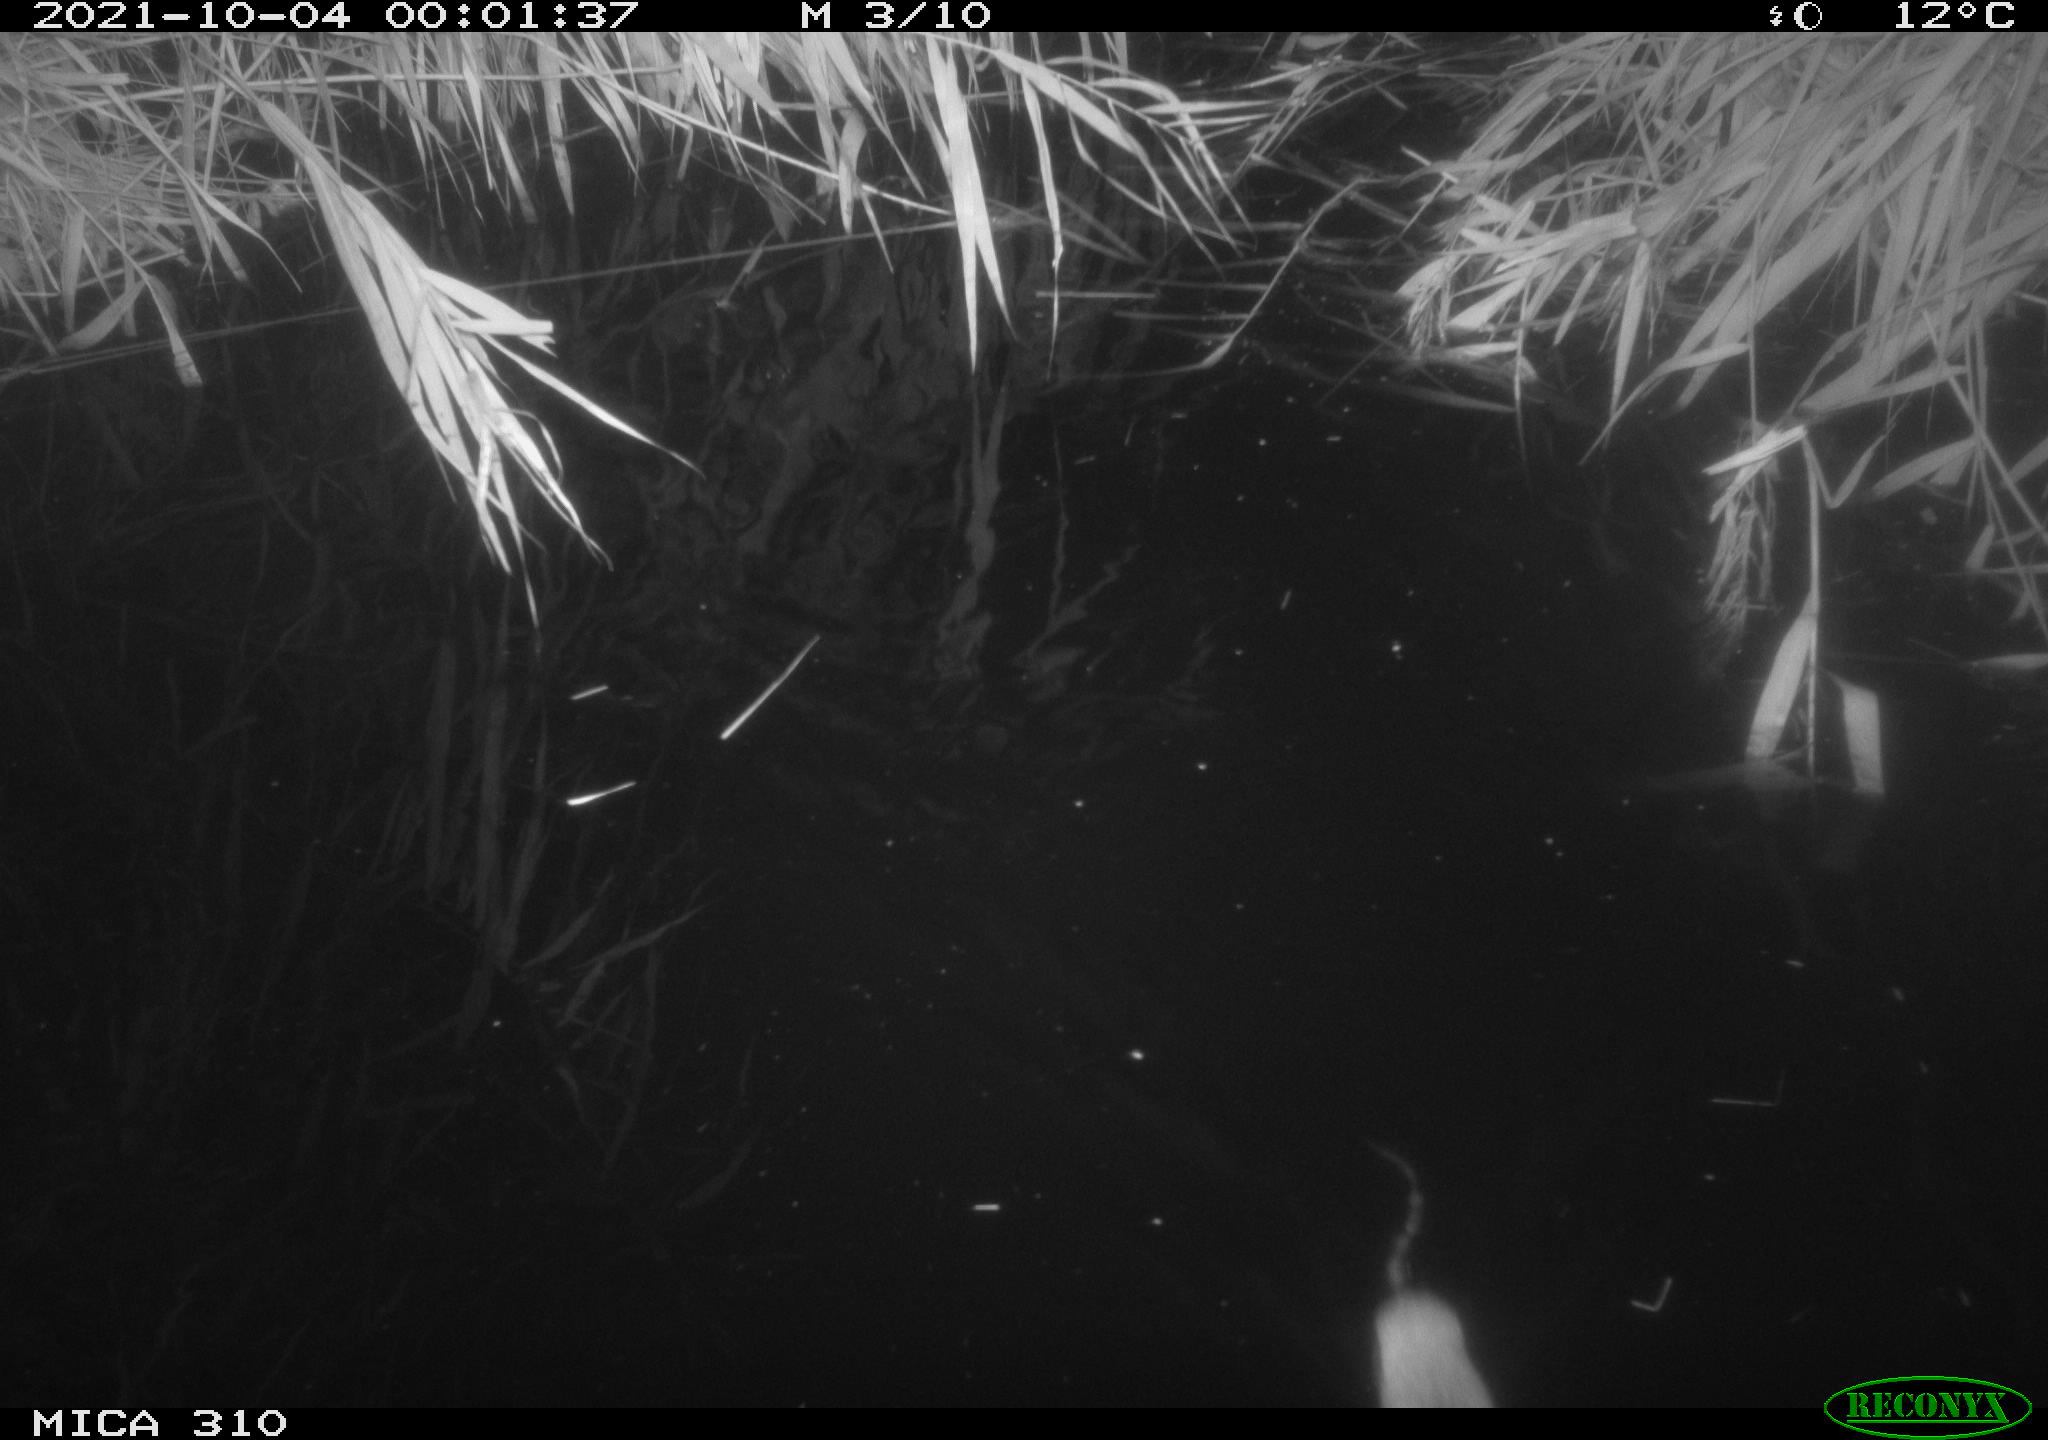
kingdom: Animalia
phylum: Chordata
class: Mammalia
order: Rodentia
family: Muridae
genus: Rattus
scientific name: Rattus norvegicus
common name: Brown rat
